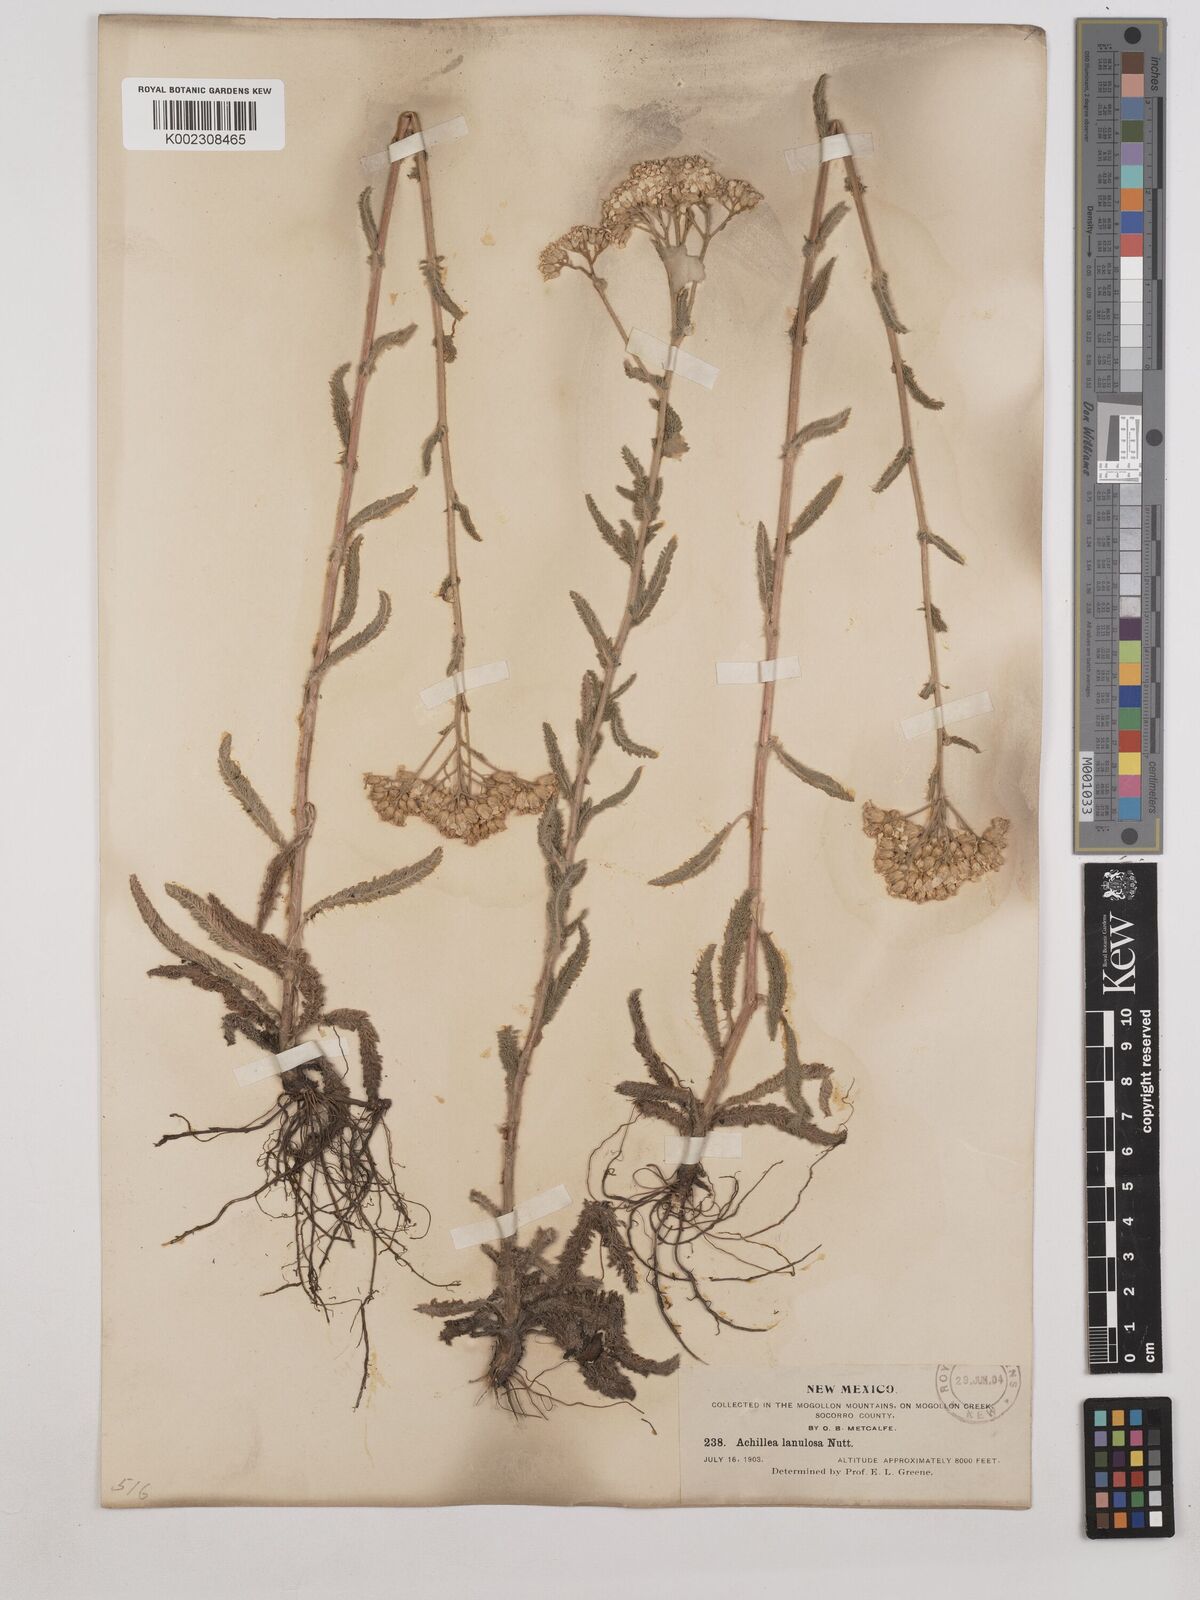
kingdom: Plantae
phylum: Tracheophyta
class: Magnoliopsida
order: Asterales
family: Asteraceae
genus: Achillea
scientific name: Achillea millefolium
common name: Yarrow
